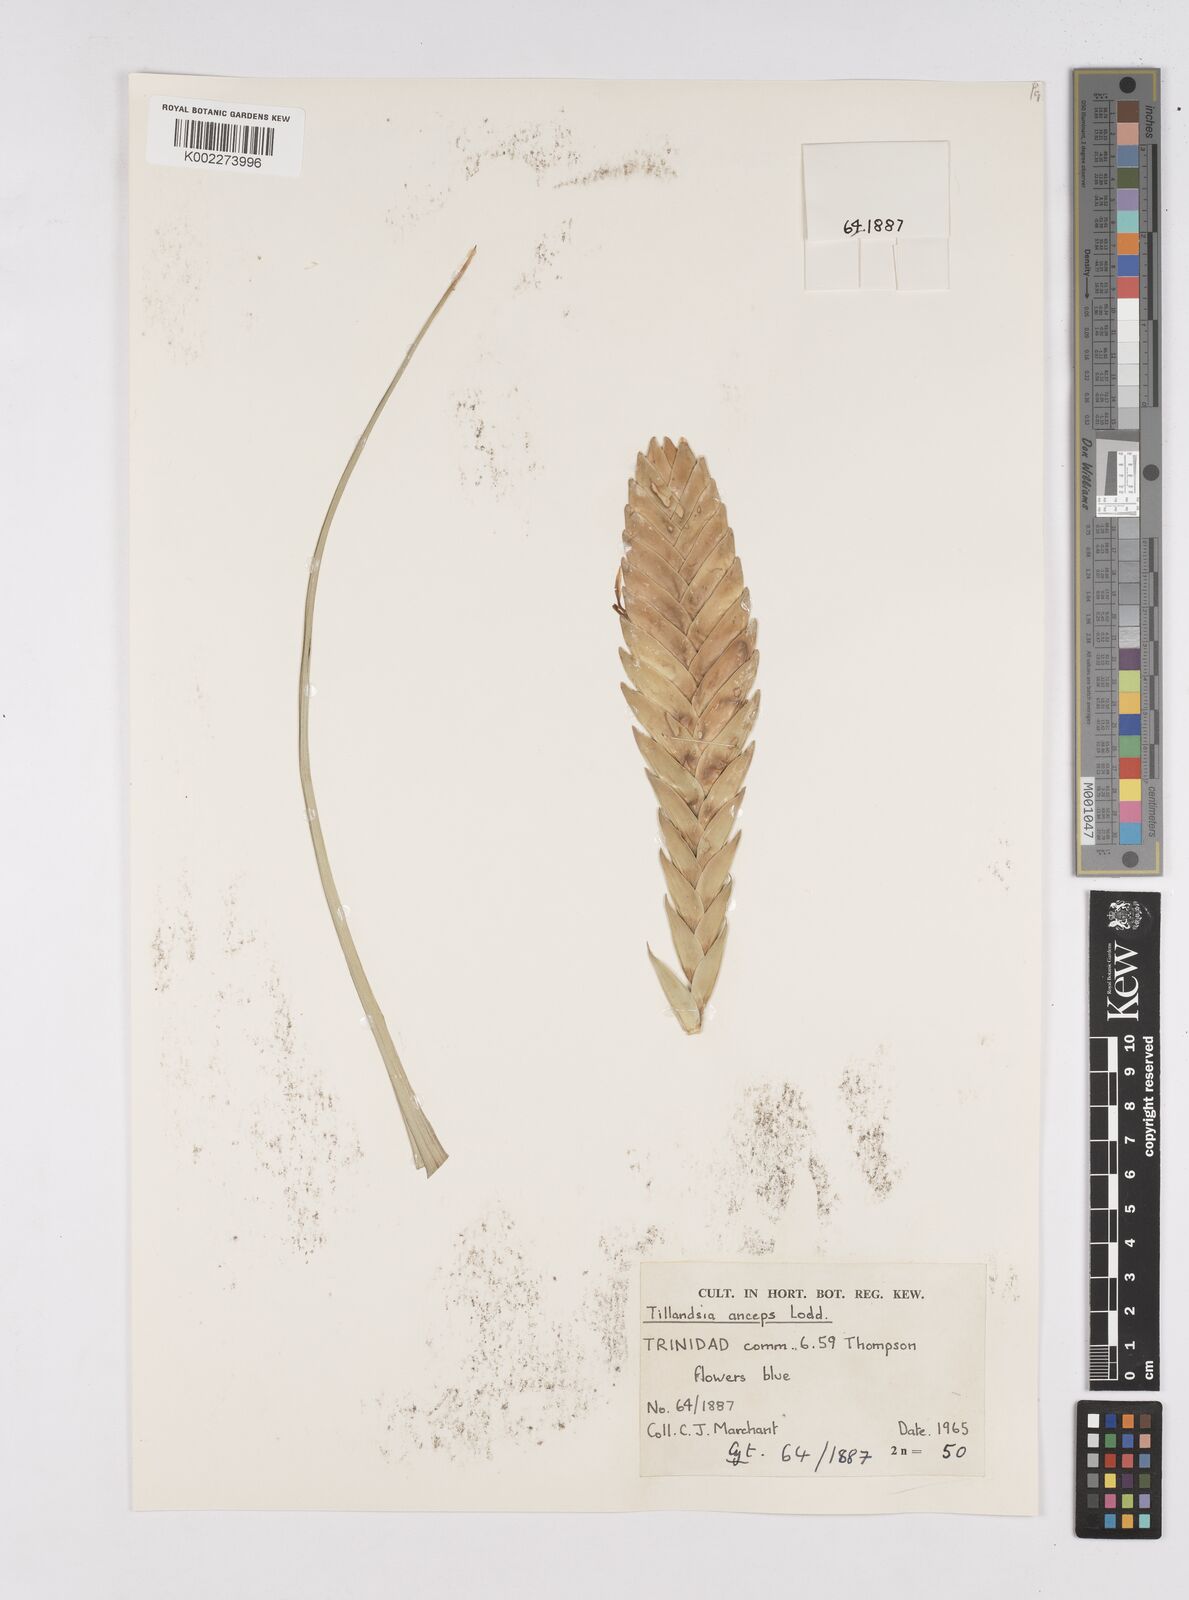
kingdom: Plantae
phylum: Tracheophyta
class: Liliopsida
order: Poales
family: Bromeliaceae
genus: Wallisia
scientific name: Wallisia anceps
